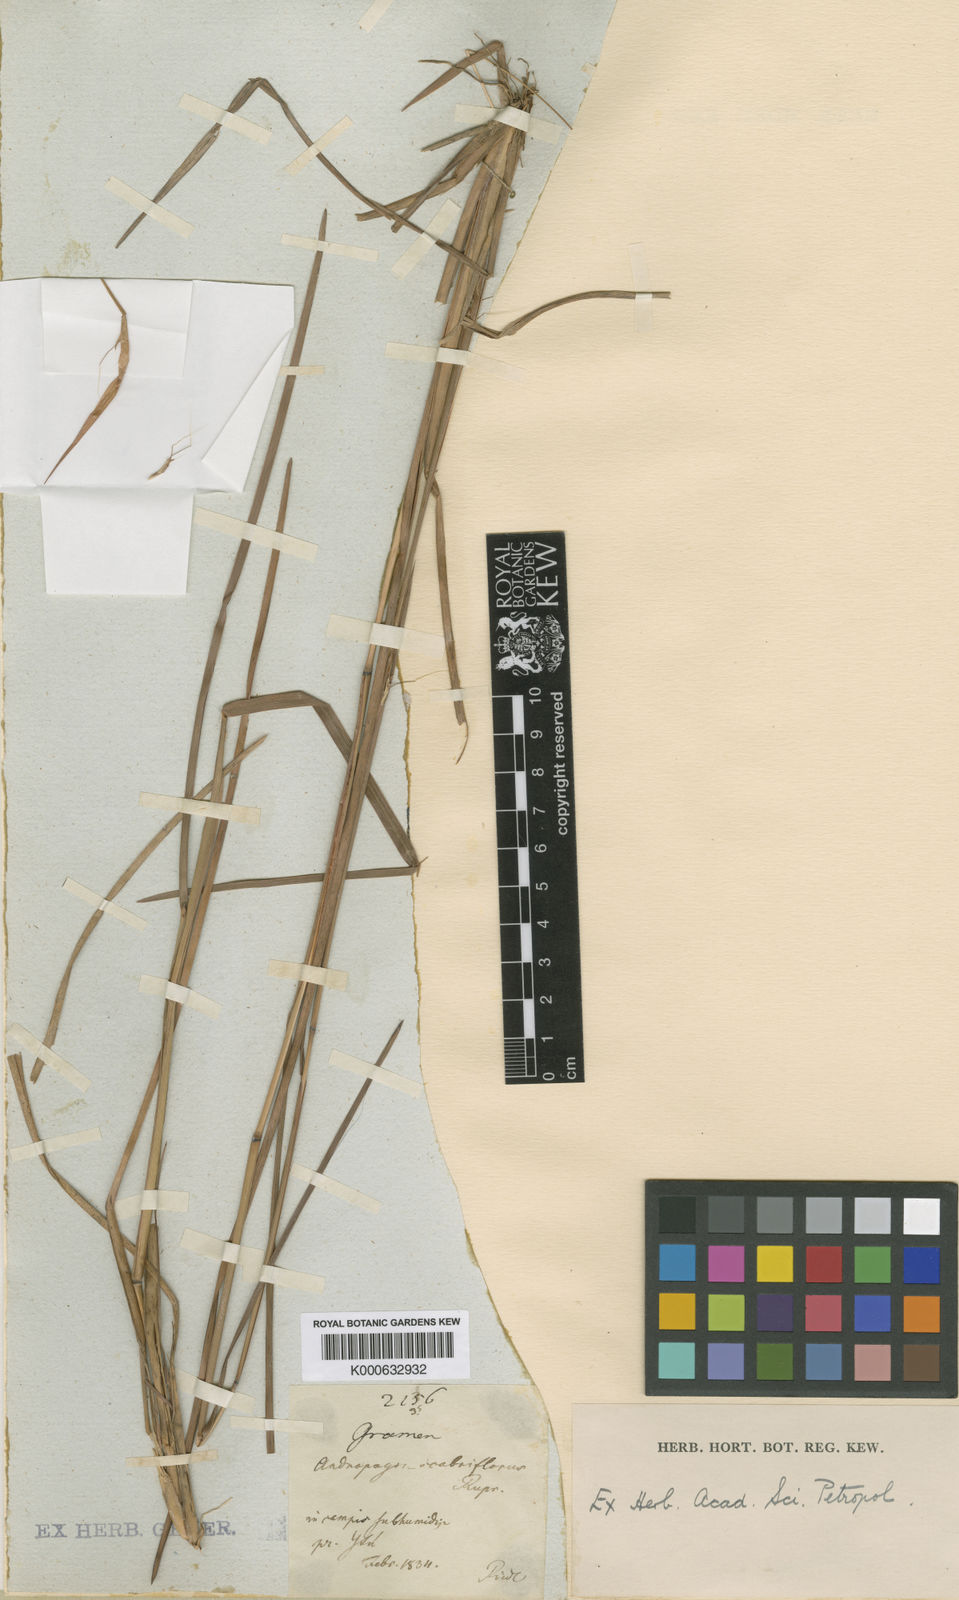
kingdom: Plantae
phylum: Tracheophyta
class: Liliopsida
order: Poales
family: Poaceae
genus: Schizachyrium
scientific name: Schizachyrium scabriflorum
